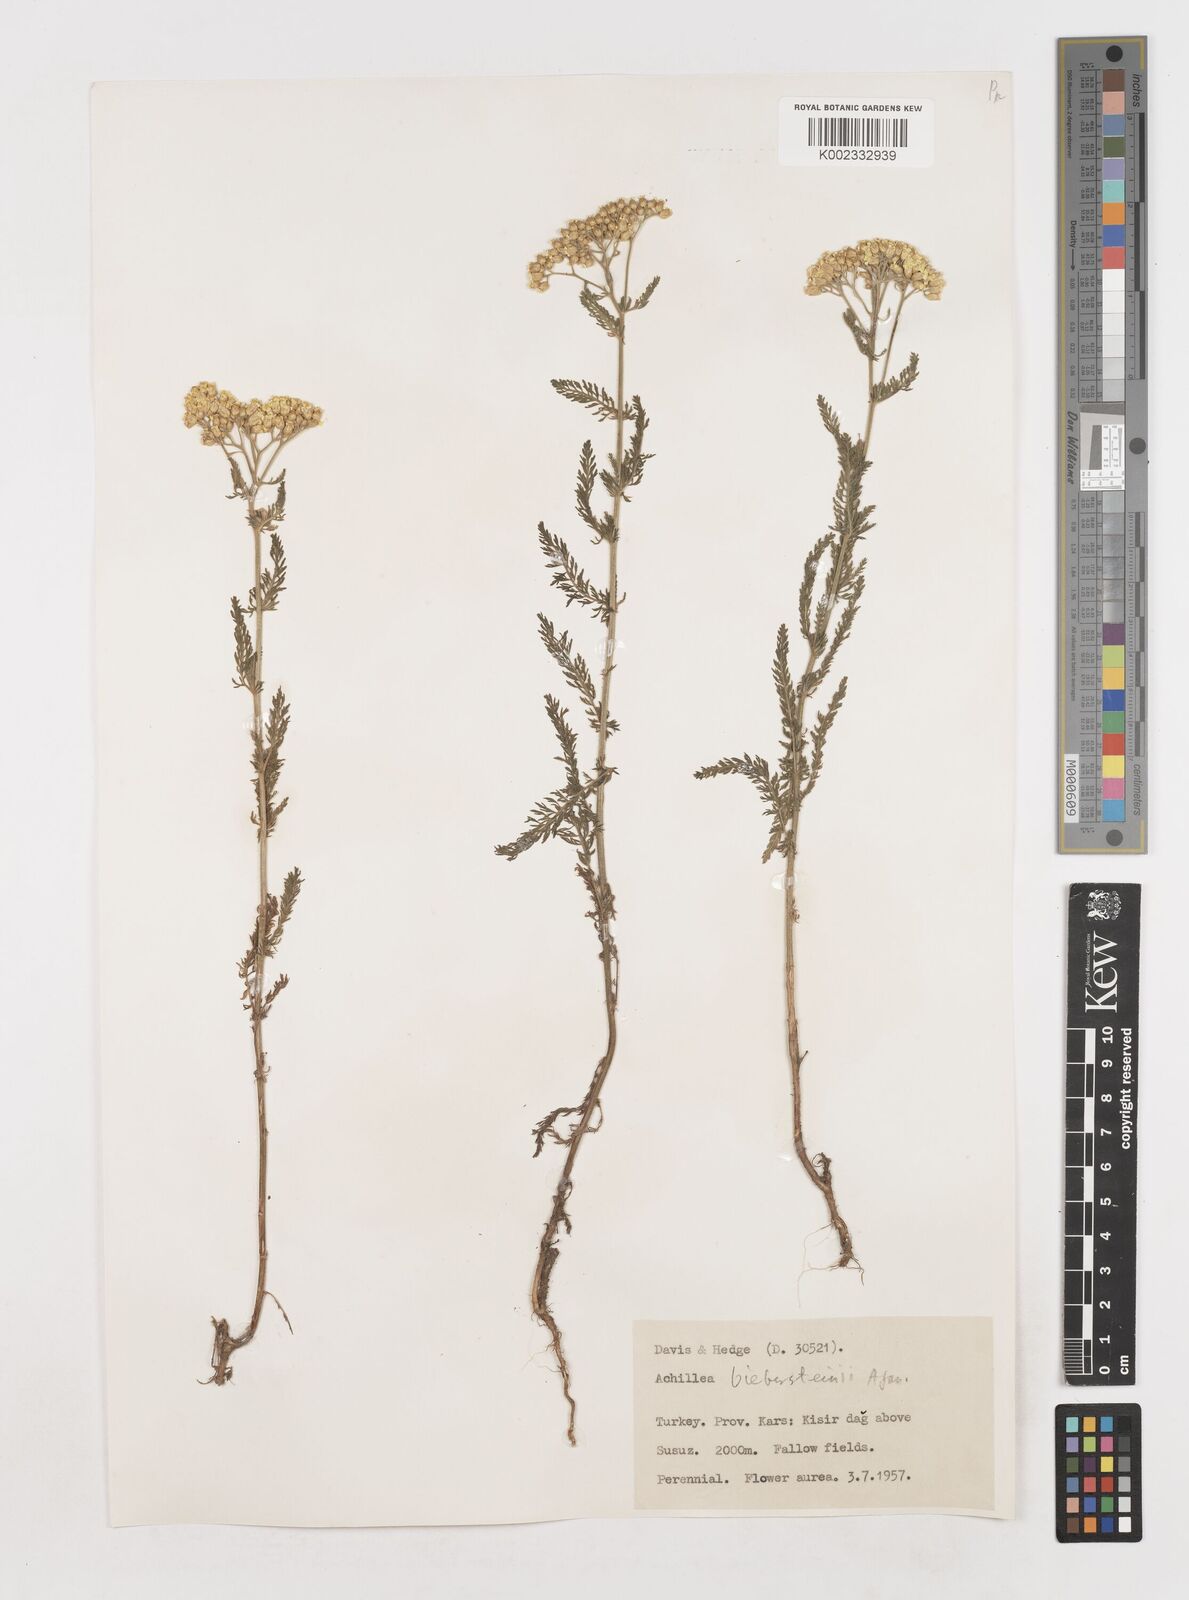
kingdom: Plantae
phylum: Tracheophyta
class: Magnoliopsida
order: Asterales
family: Asteraceae
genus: Achillea
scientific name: Achillea arabica
